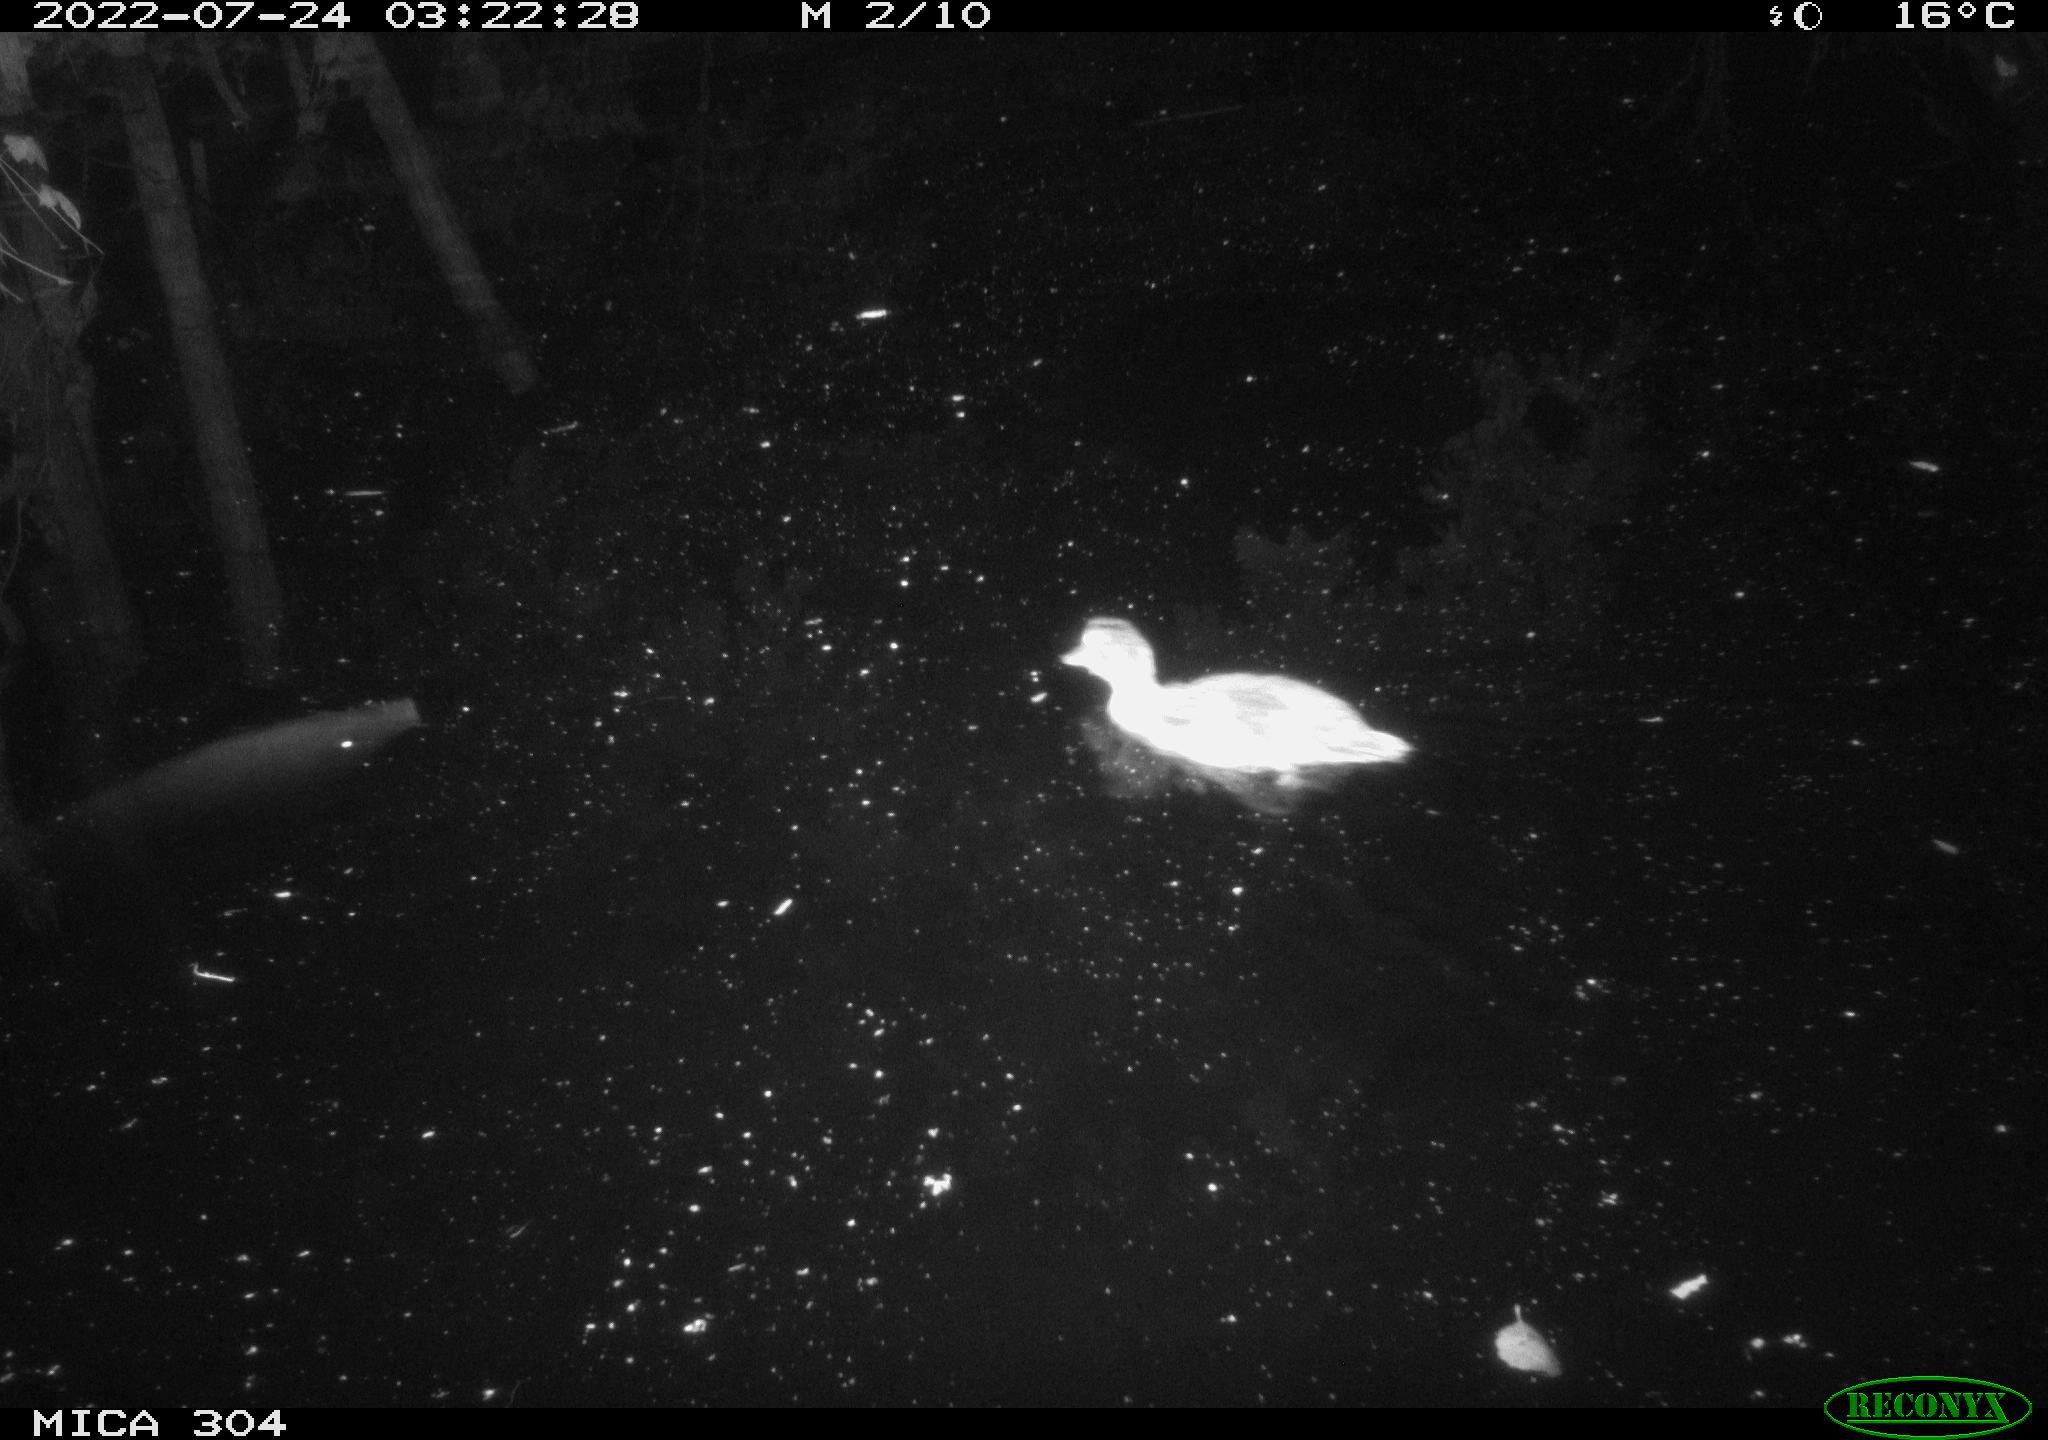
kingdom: Animalia
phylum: Chordata
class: Aves
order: Anseriformes
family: Anatidae
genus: Anas
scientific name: Anas platyrhynchos
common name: Mallard
